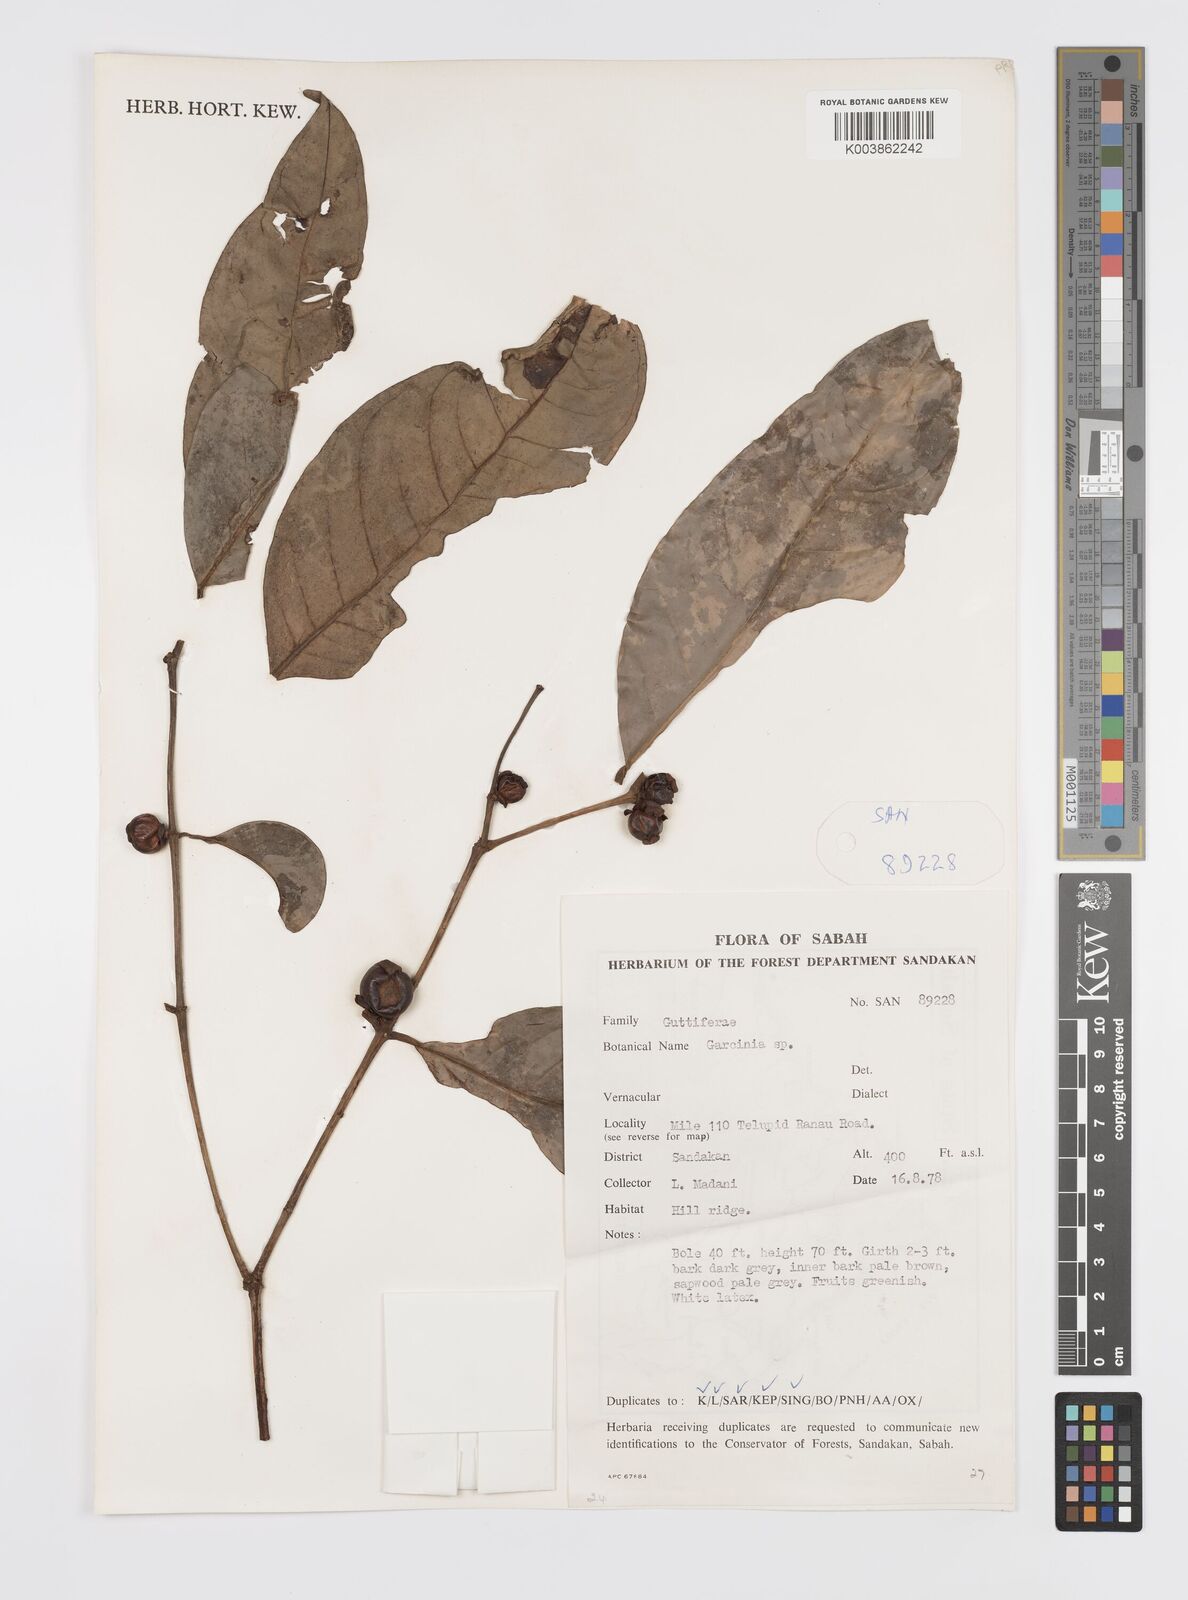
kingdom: Plantae
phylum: Tracheophyta
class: Magnoliopsida
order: Malpighiales
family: Clusiaceae
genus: Garcinia
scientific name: Garcinia
